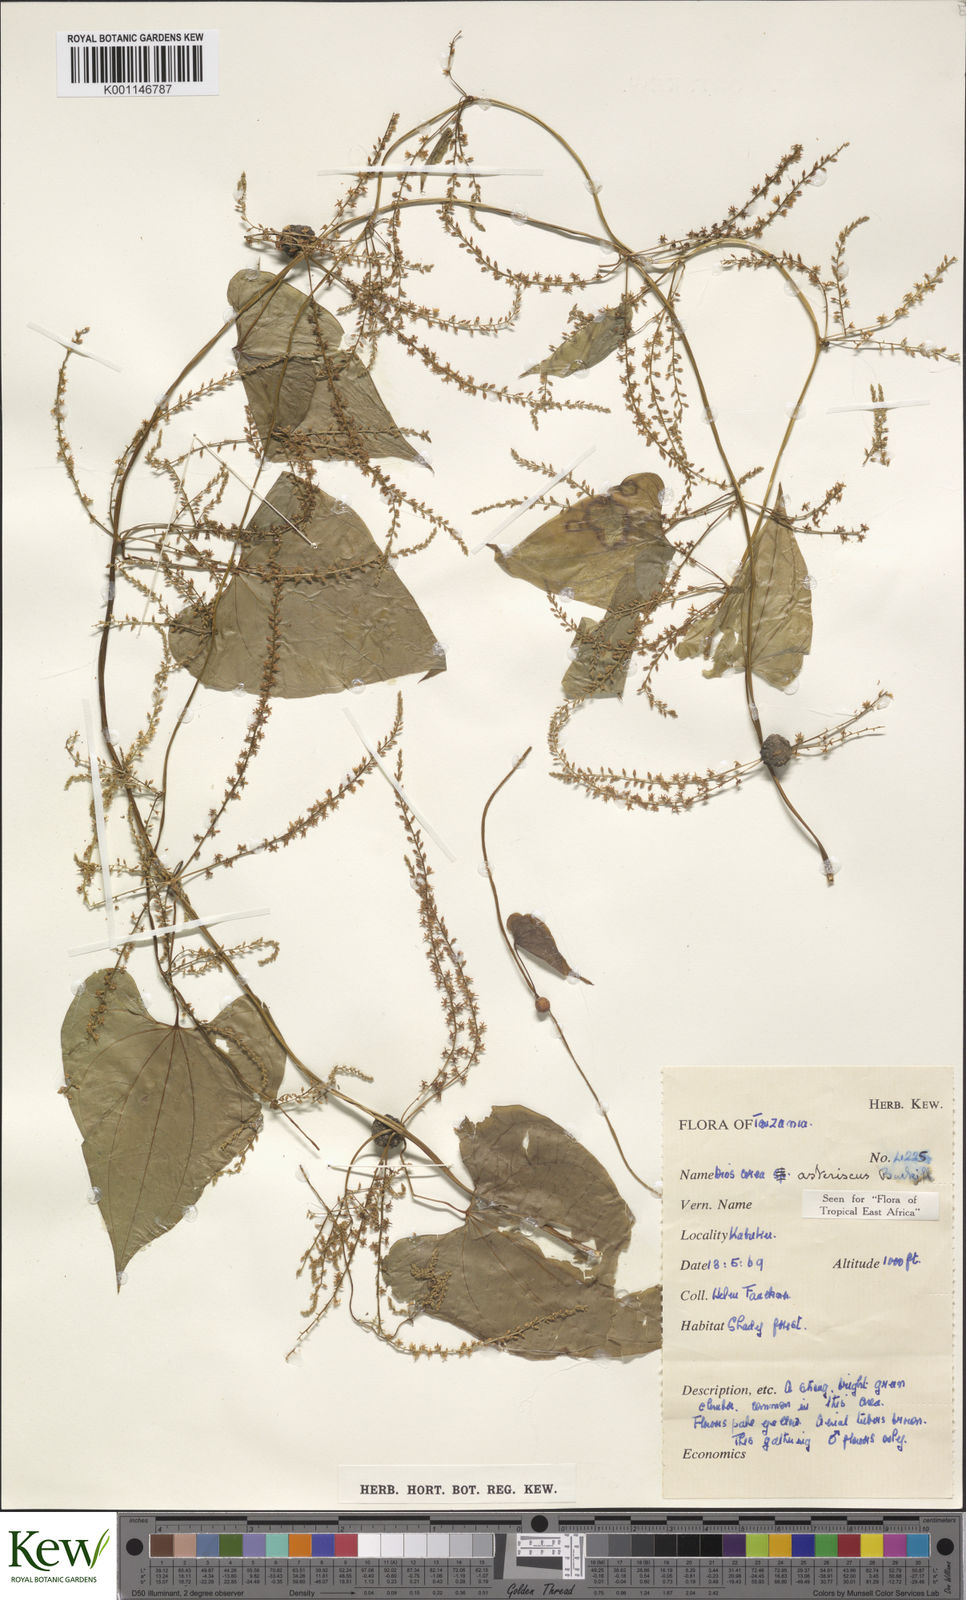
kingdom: Plantae
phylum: Tracheophyta
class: Liliopsida
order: Dioscoreales
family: Dioscoreaceae
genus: Dioscorea
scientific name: Dioscorea asteriscus
